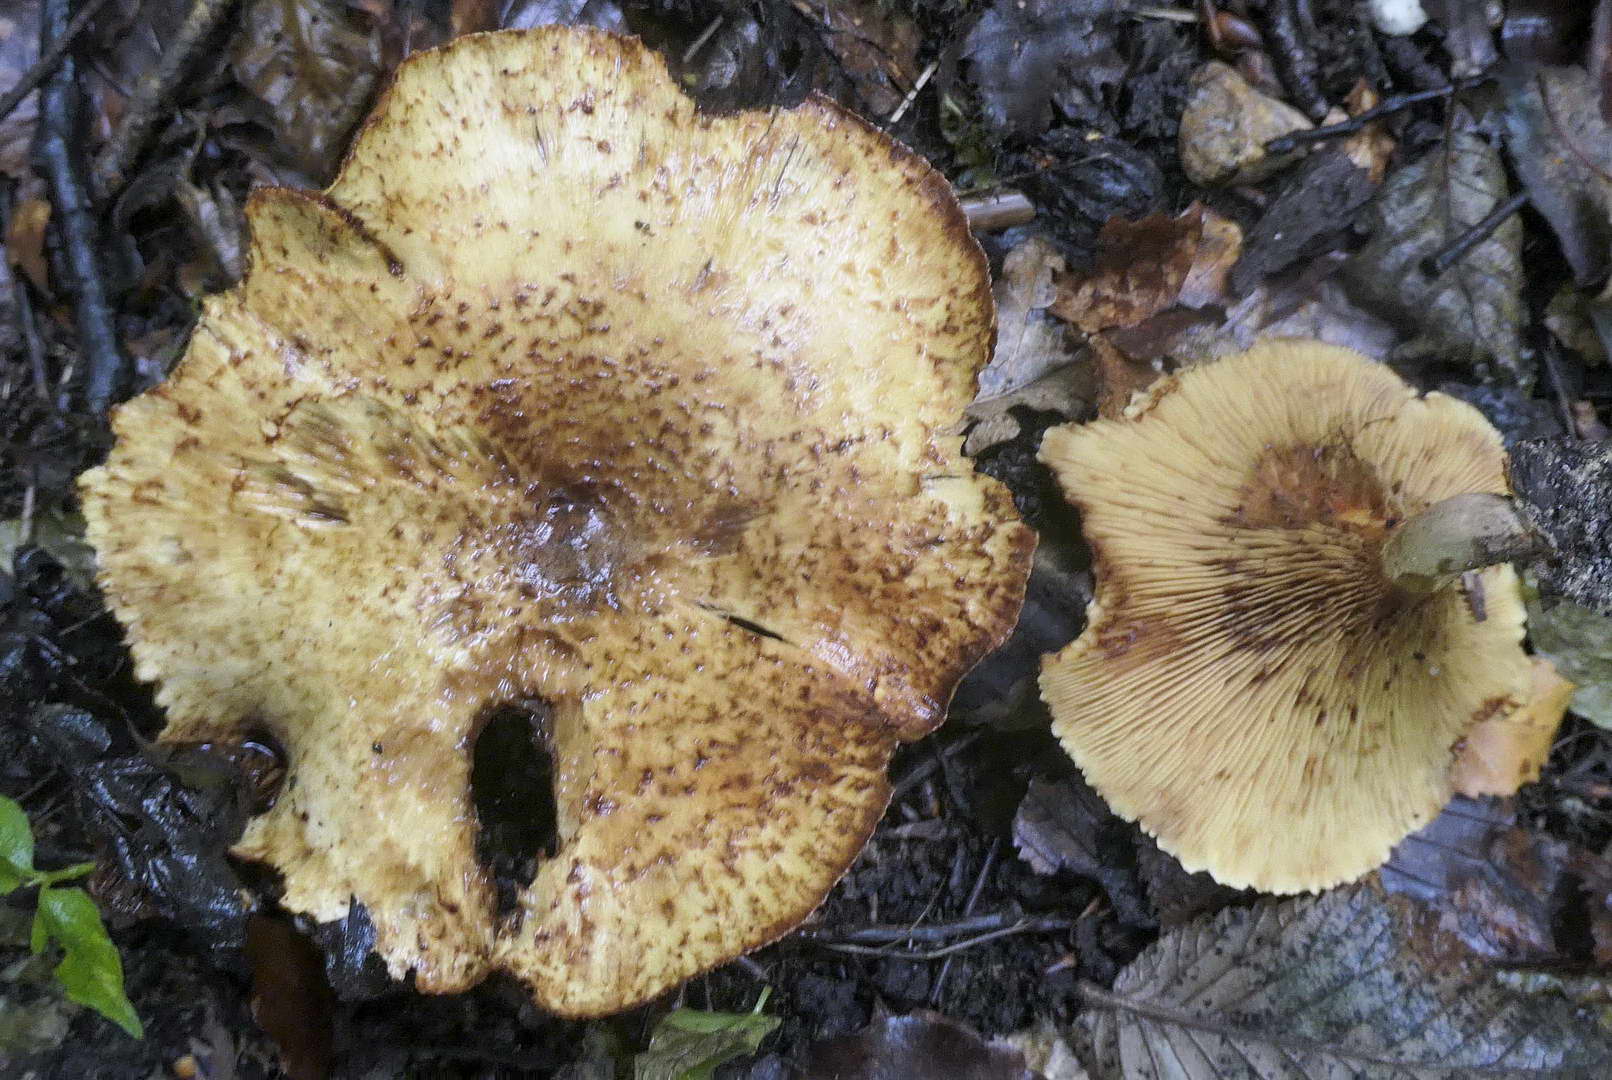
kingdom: Fungi
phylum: Basidiomycota
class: Agaricomycetes
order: Boletales
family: Paxillaceae
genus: Paxillus
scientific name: Paxillus rubicundulus
